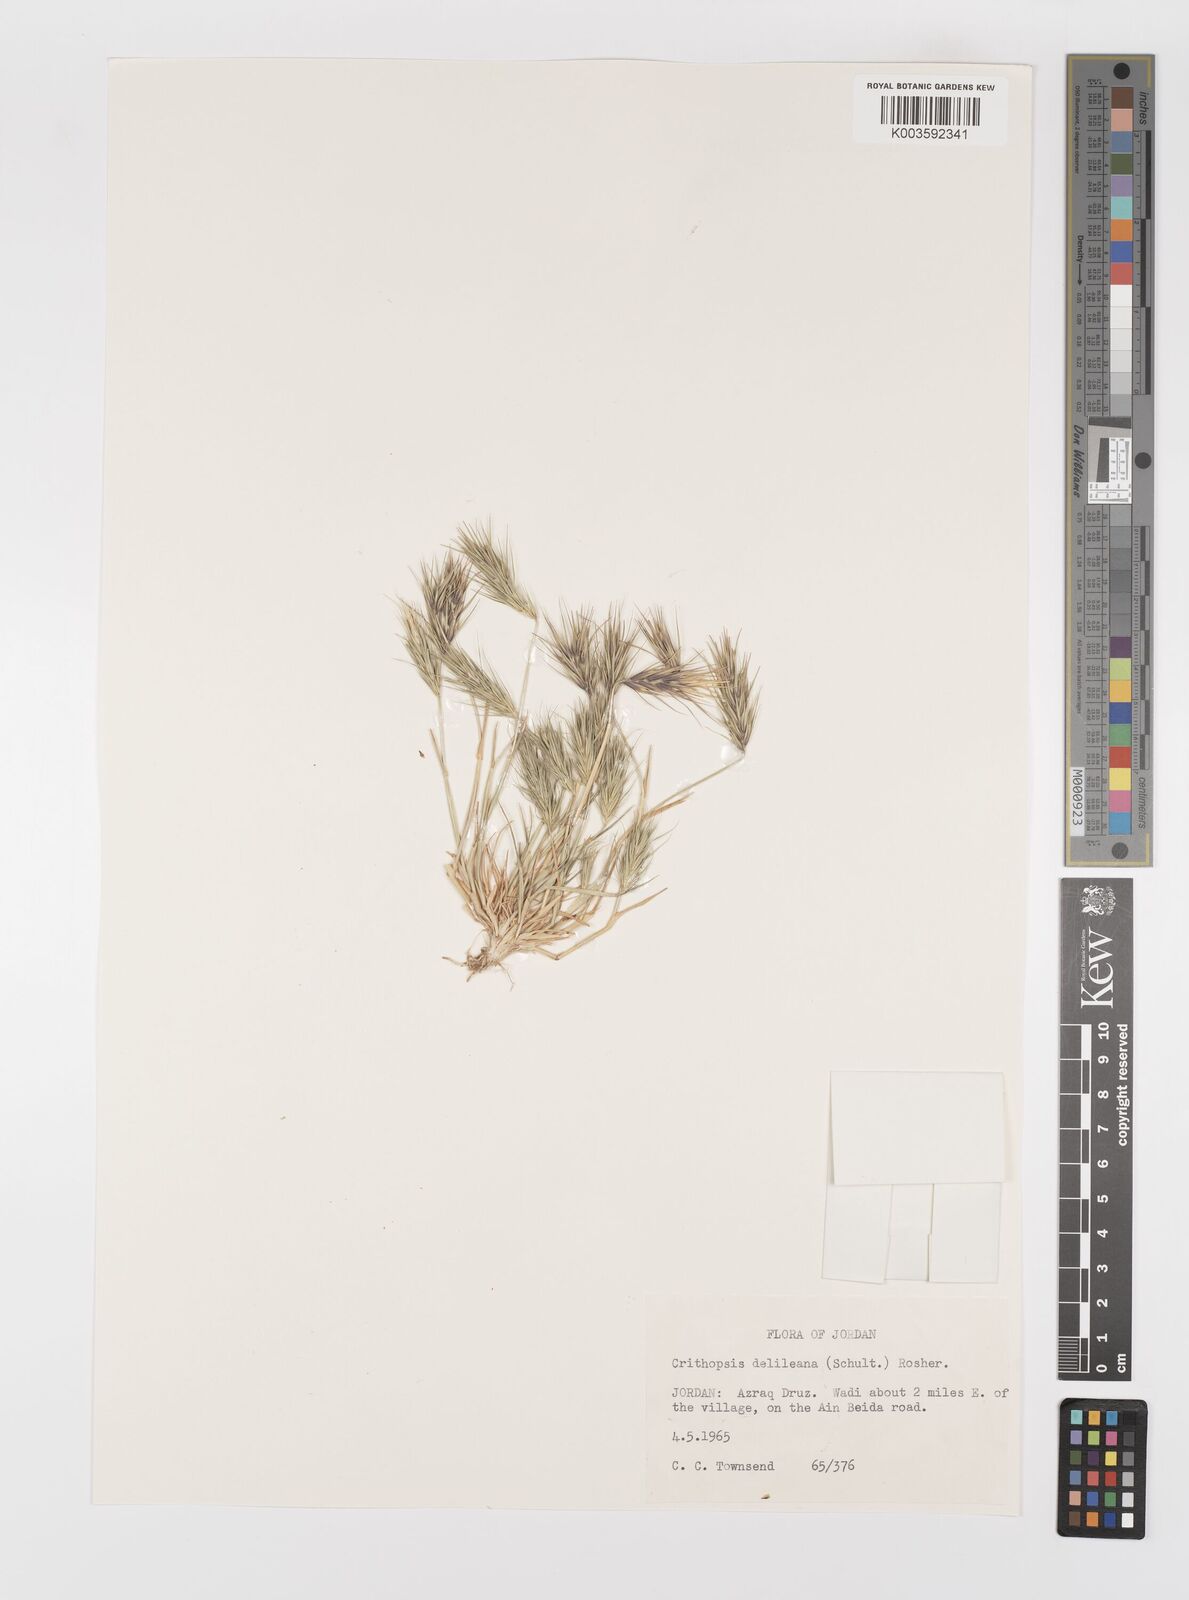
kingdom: Plantae
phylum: Tracheophyta
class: Liliopsida
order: Poales
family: Poaceae
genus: Crithopsis
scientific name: Crithopsis delileana
